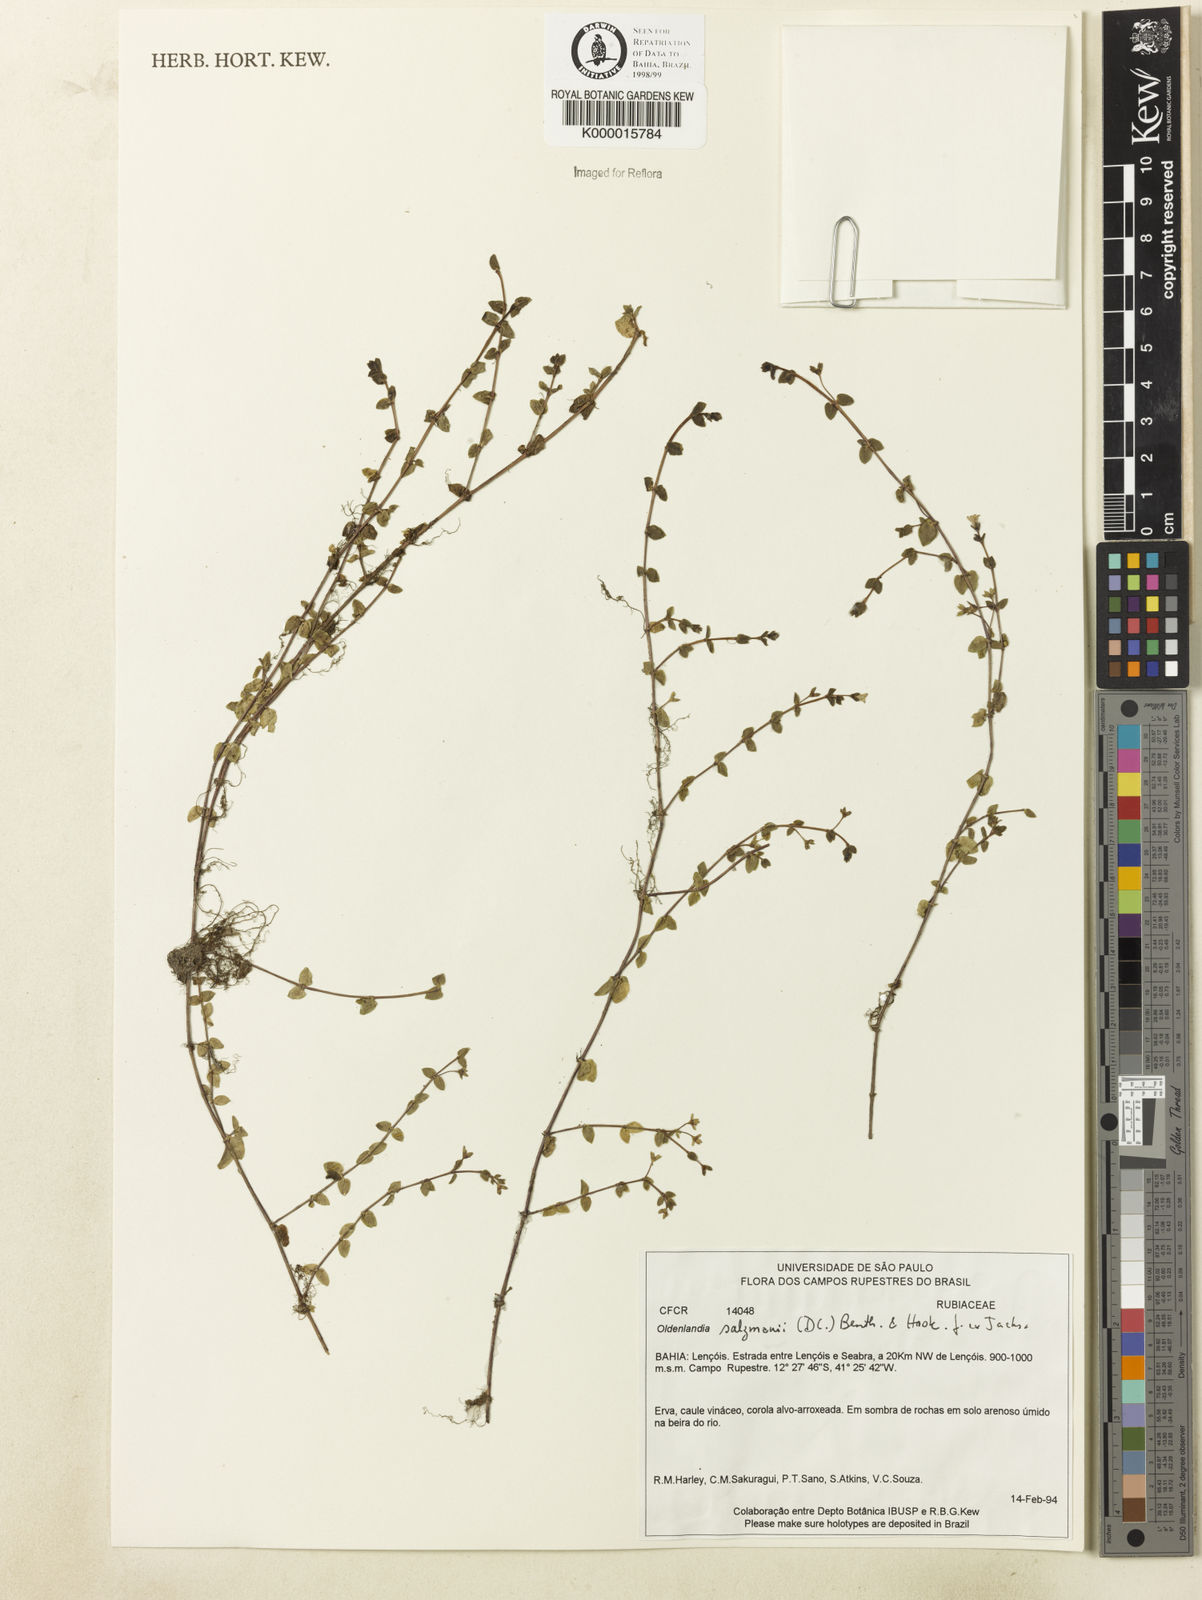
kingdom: Plantae
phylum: Tracheophyta
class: Magnoliopsida
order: Gentianales
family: Rubiaceae
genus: Oldenlandia
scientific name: Oldenlandia salzmannii
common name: Salzmann's mille graines
